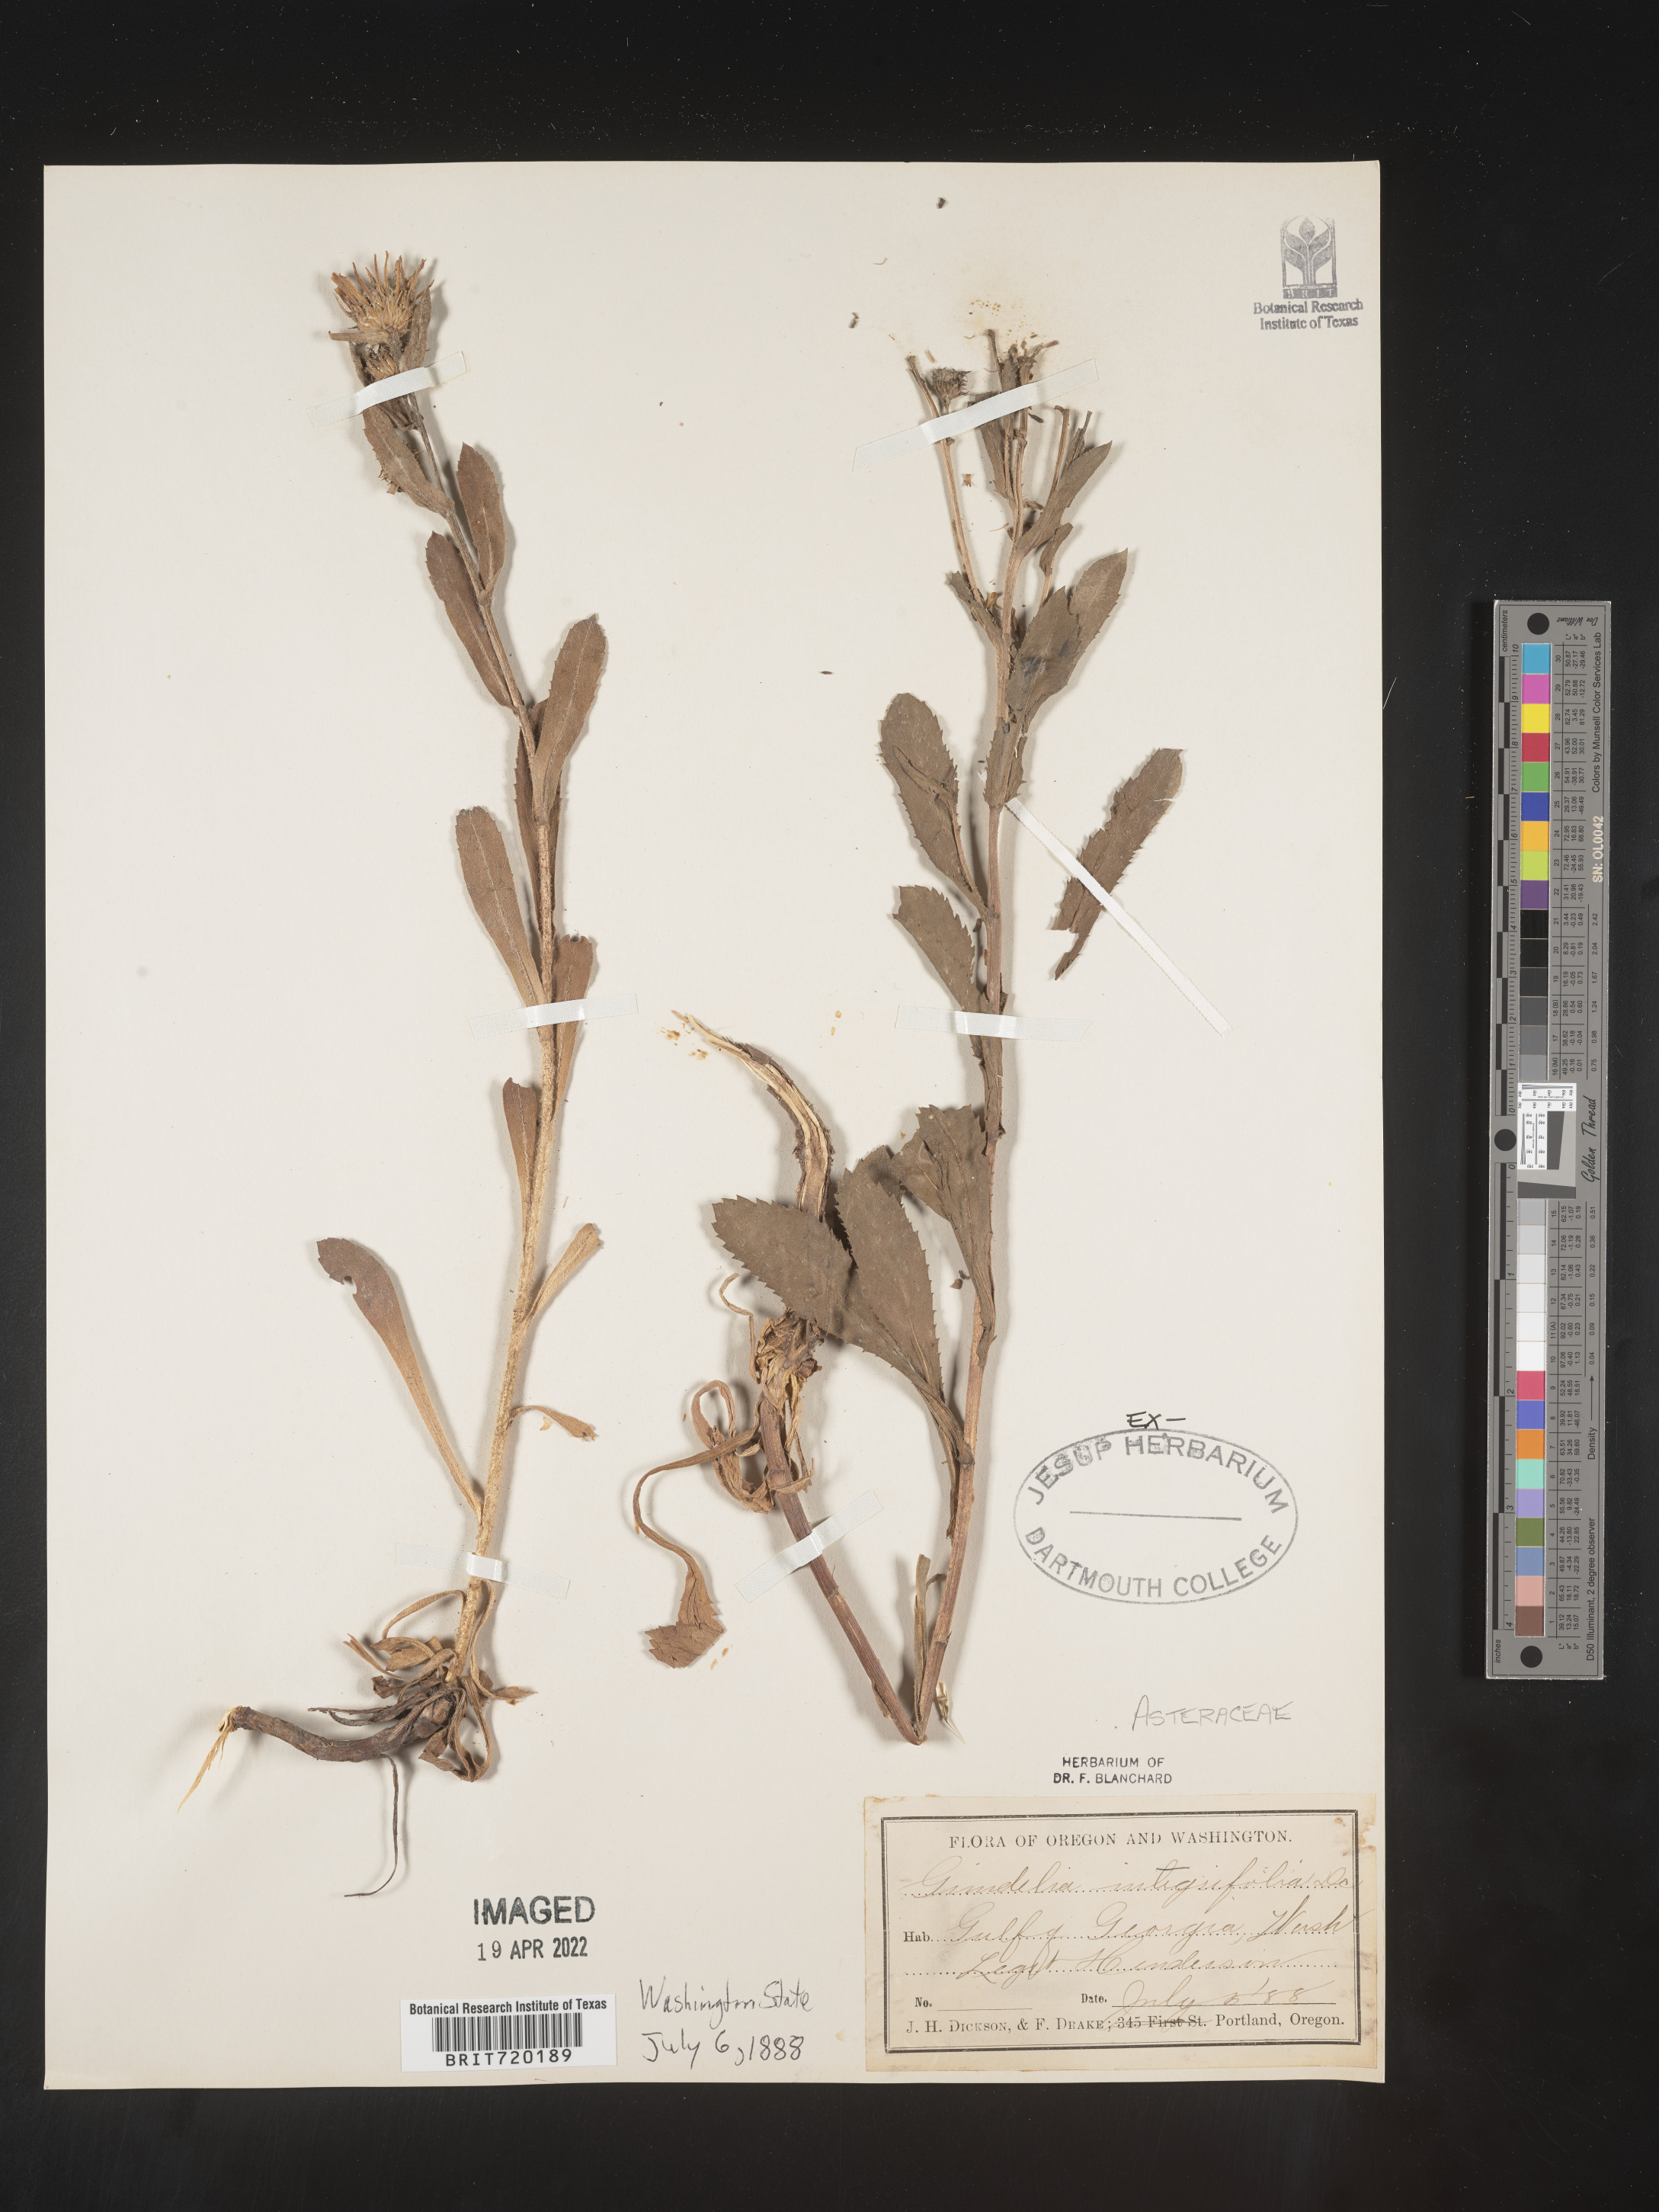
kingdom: Plantae
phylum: Tracheophyta
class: Magnoliopsida
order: Asterales
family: Asteraceae
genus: Grindelia
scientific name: Grindelia integrifolia
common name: Puget sound gumweed
